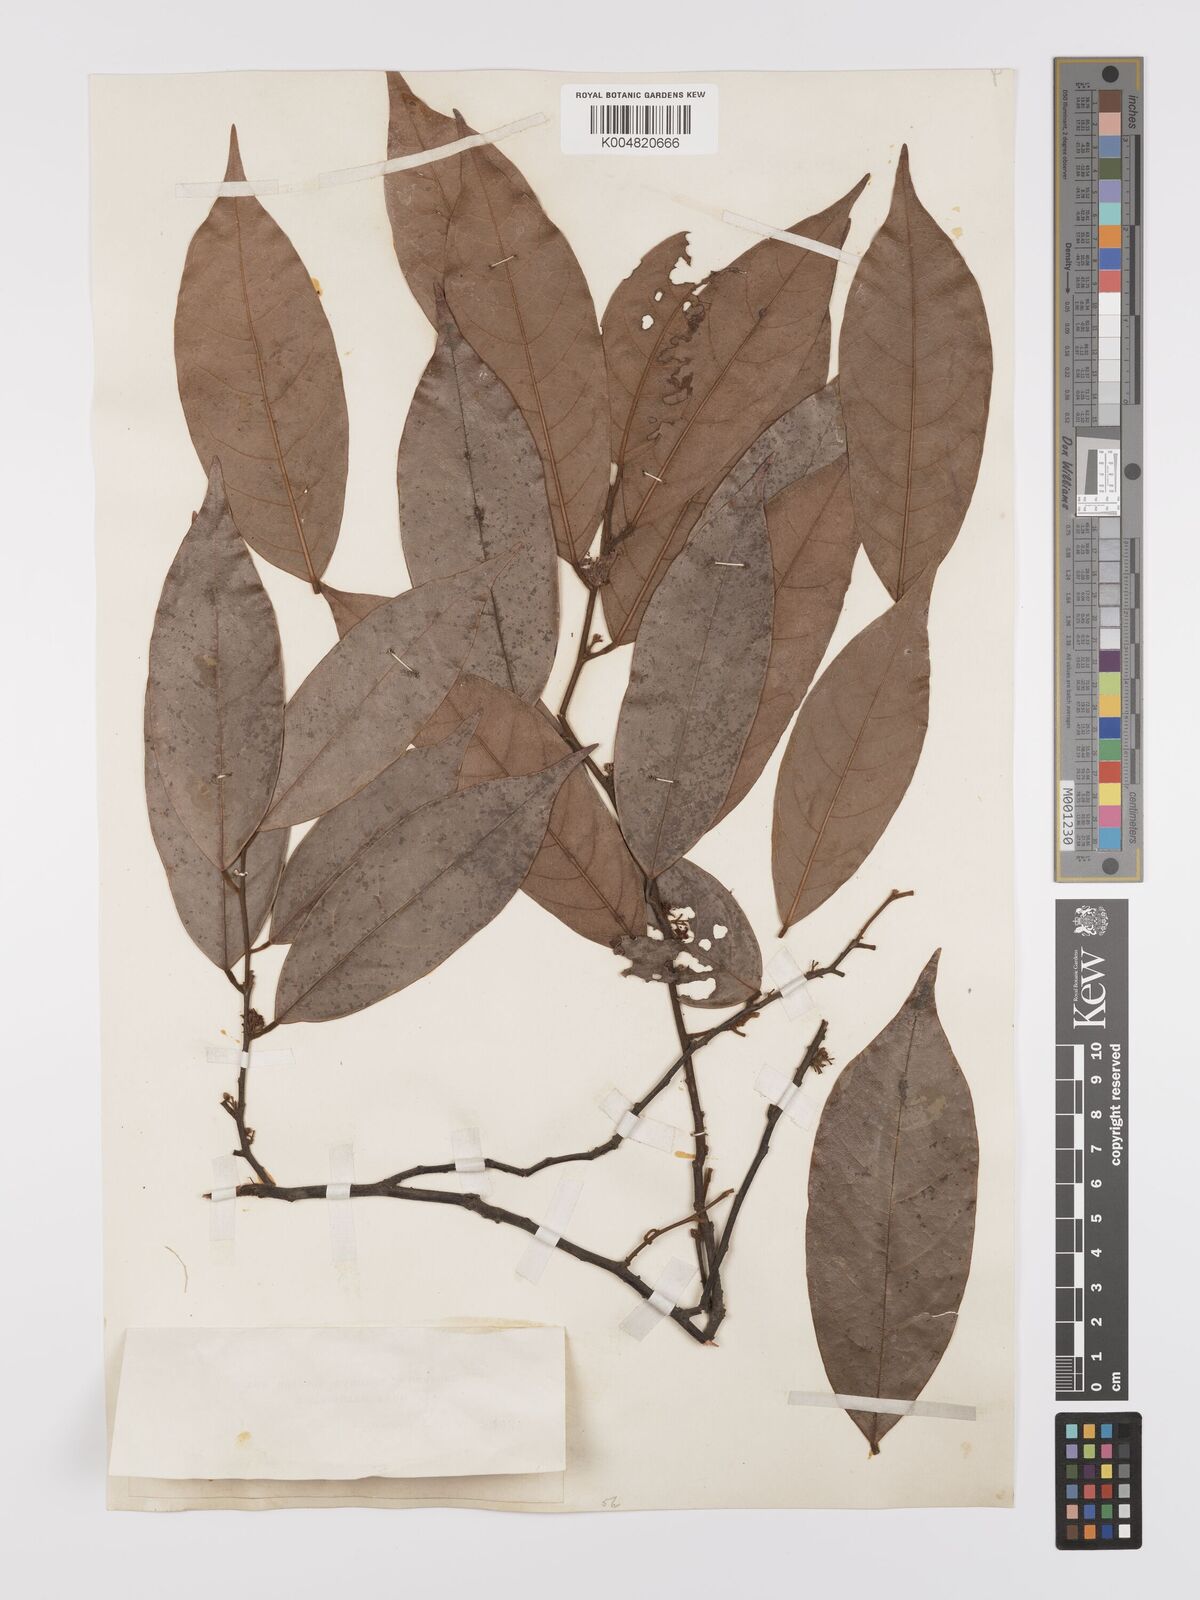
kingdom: Plantae
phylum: Tracheophyta
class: Magnoliopsida
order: Oxalidales
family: Connaraceae
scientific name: Connaraceae
